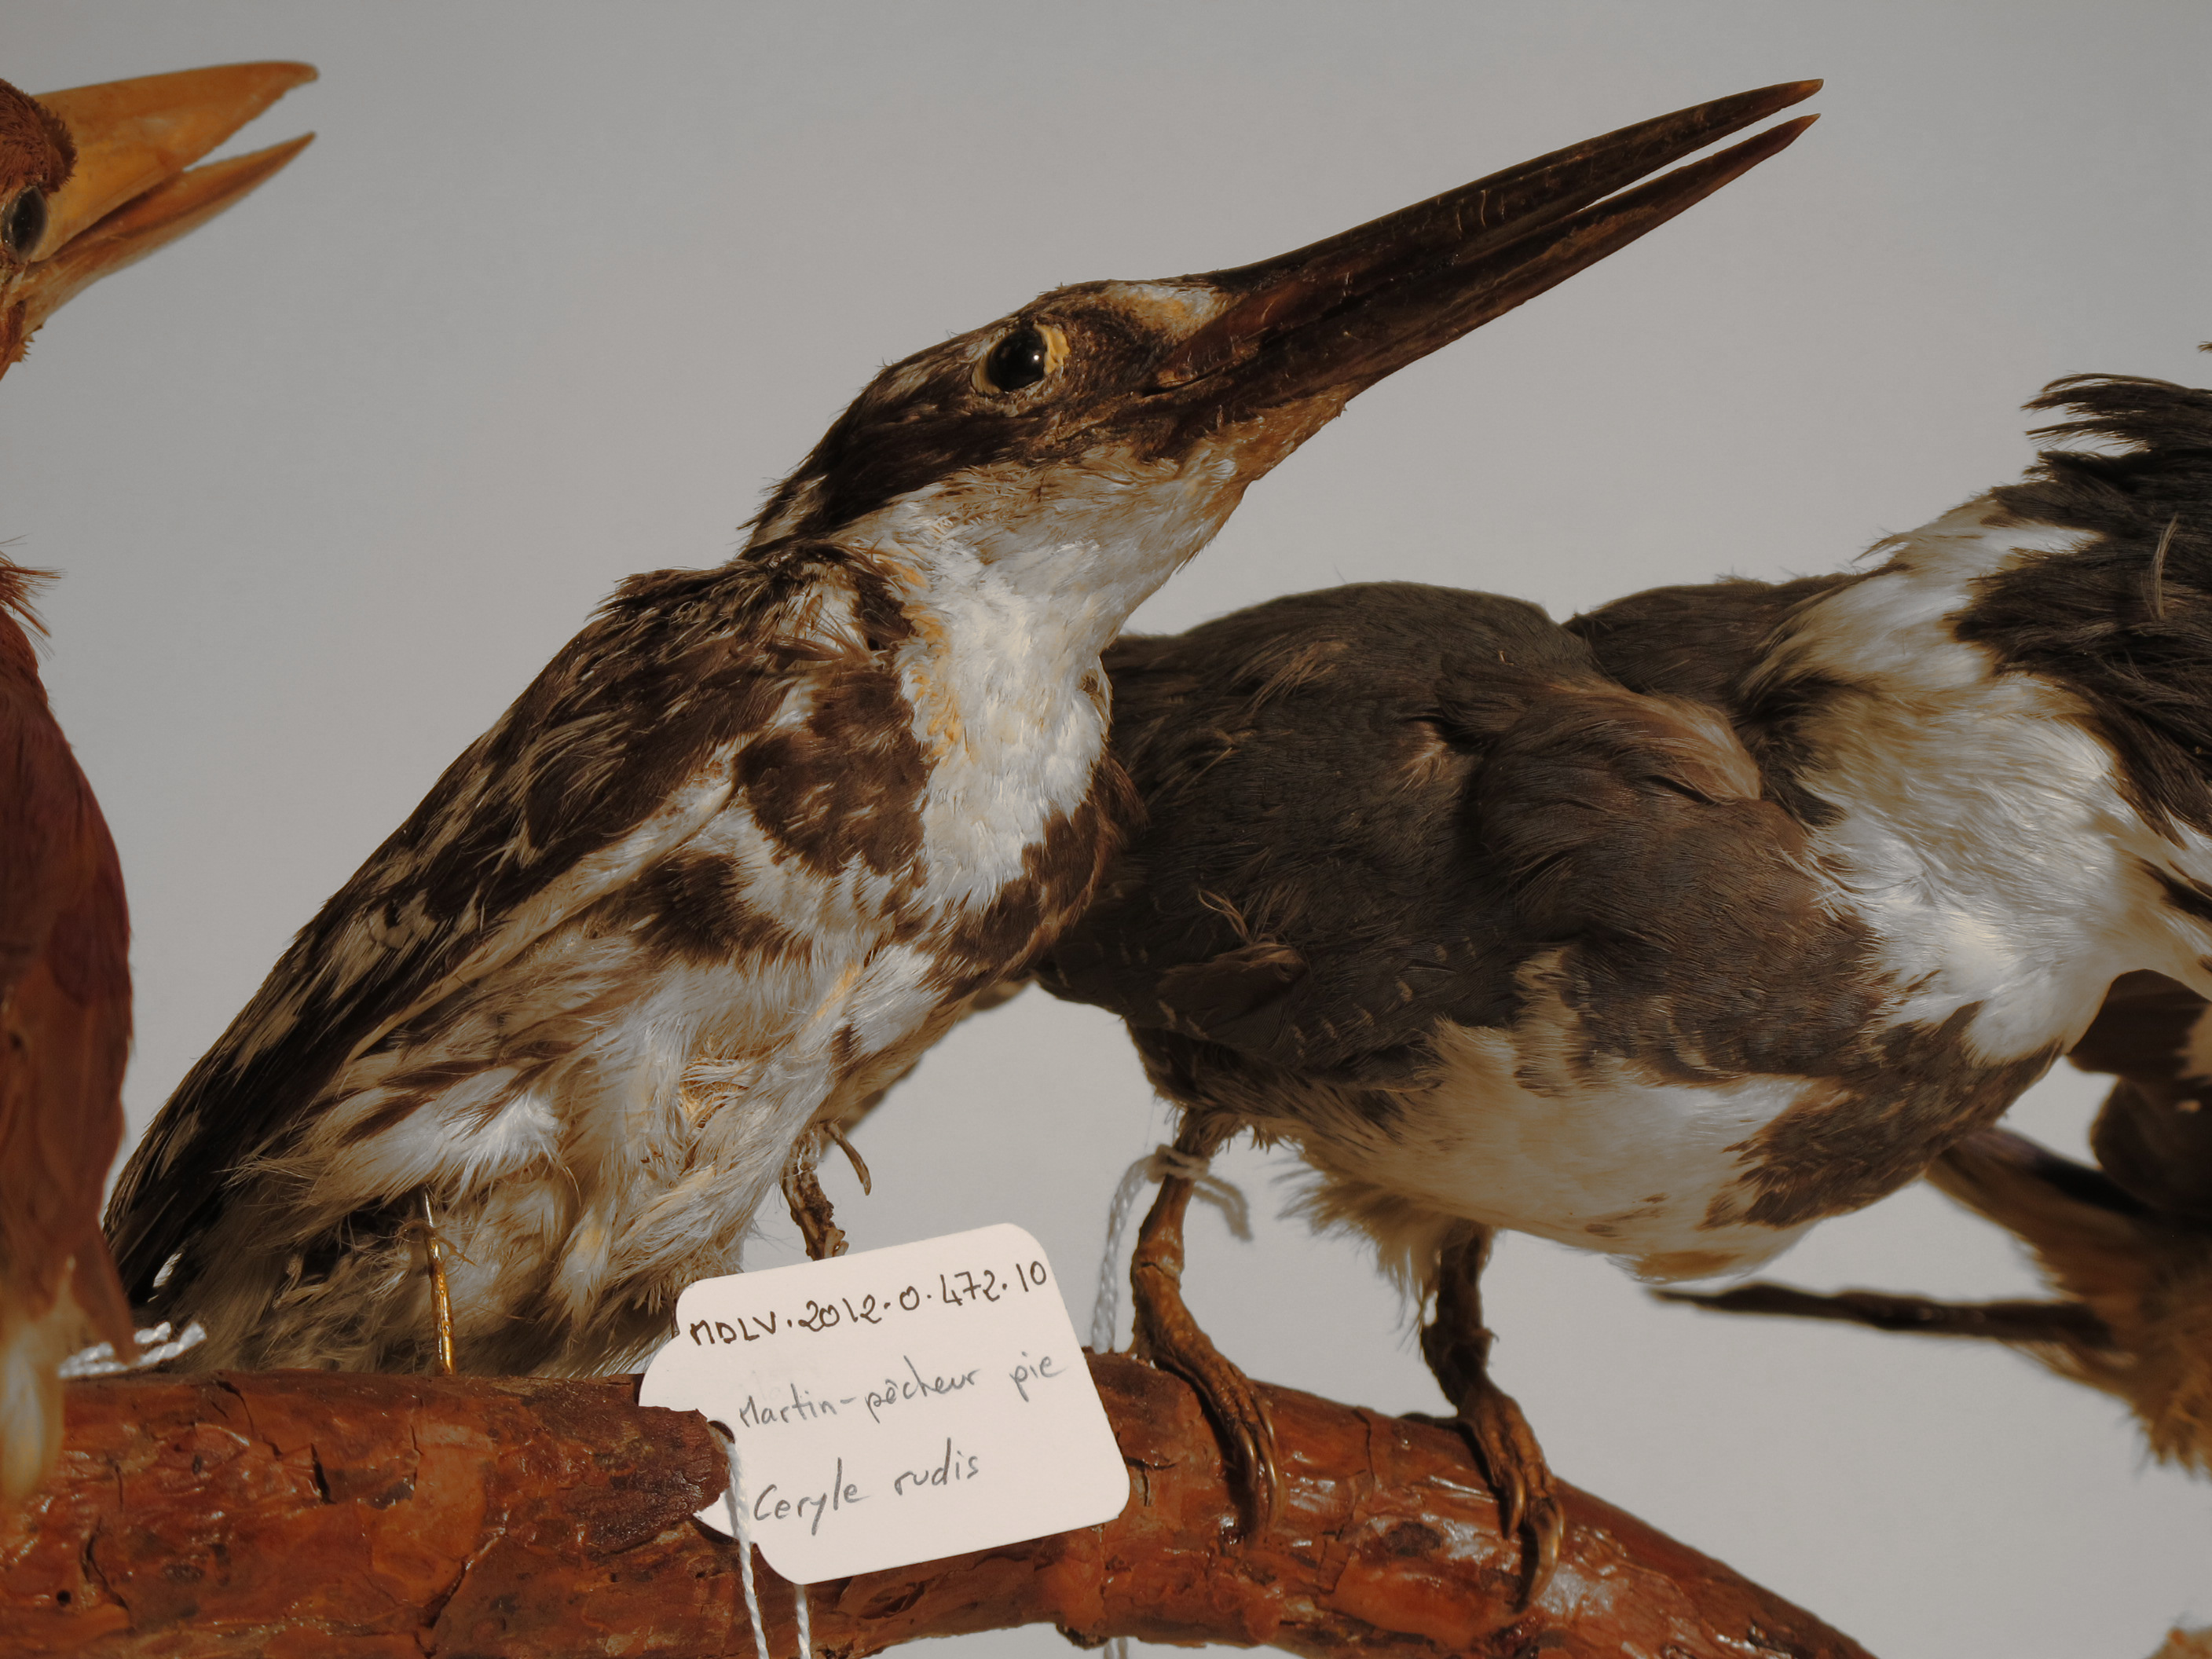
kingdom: Animalia
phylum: Chordata
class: Aves
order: Coraciiformes
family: Alcedinidae
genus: Ceryle
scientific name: Ceryle rudis
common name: Pied Kingfisher
